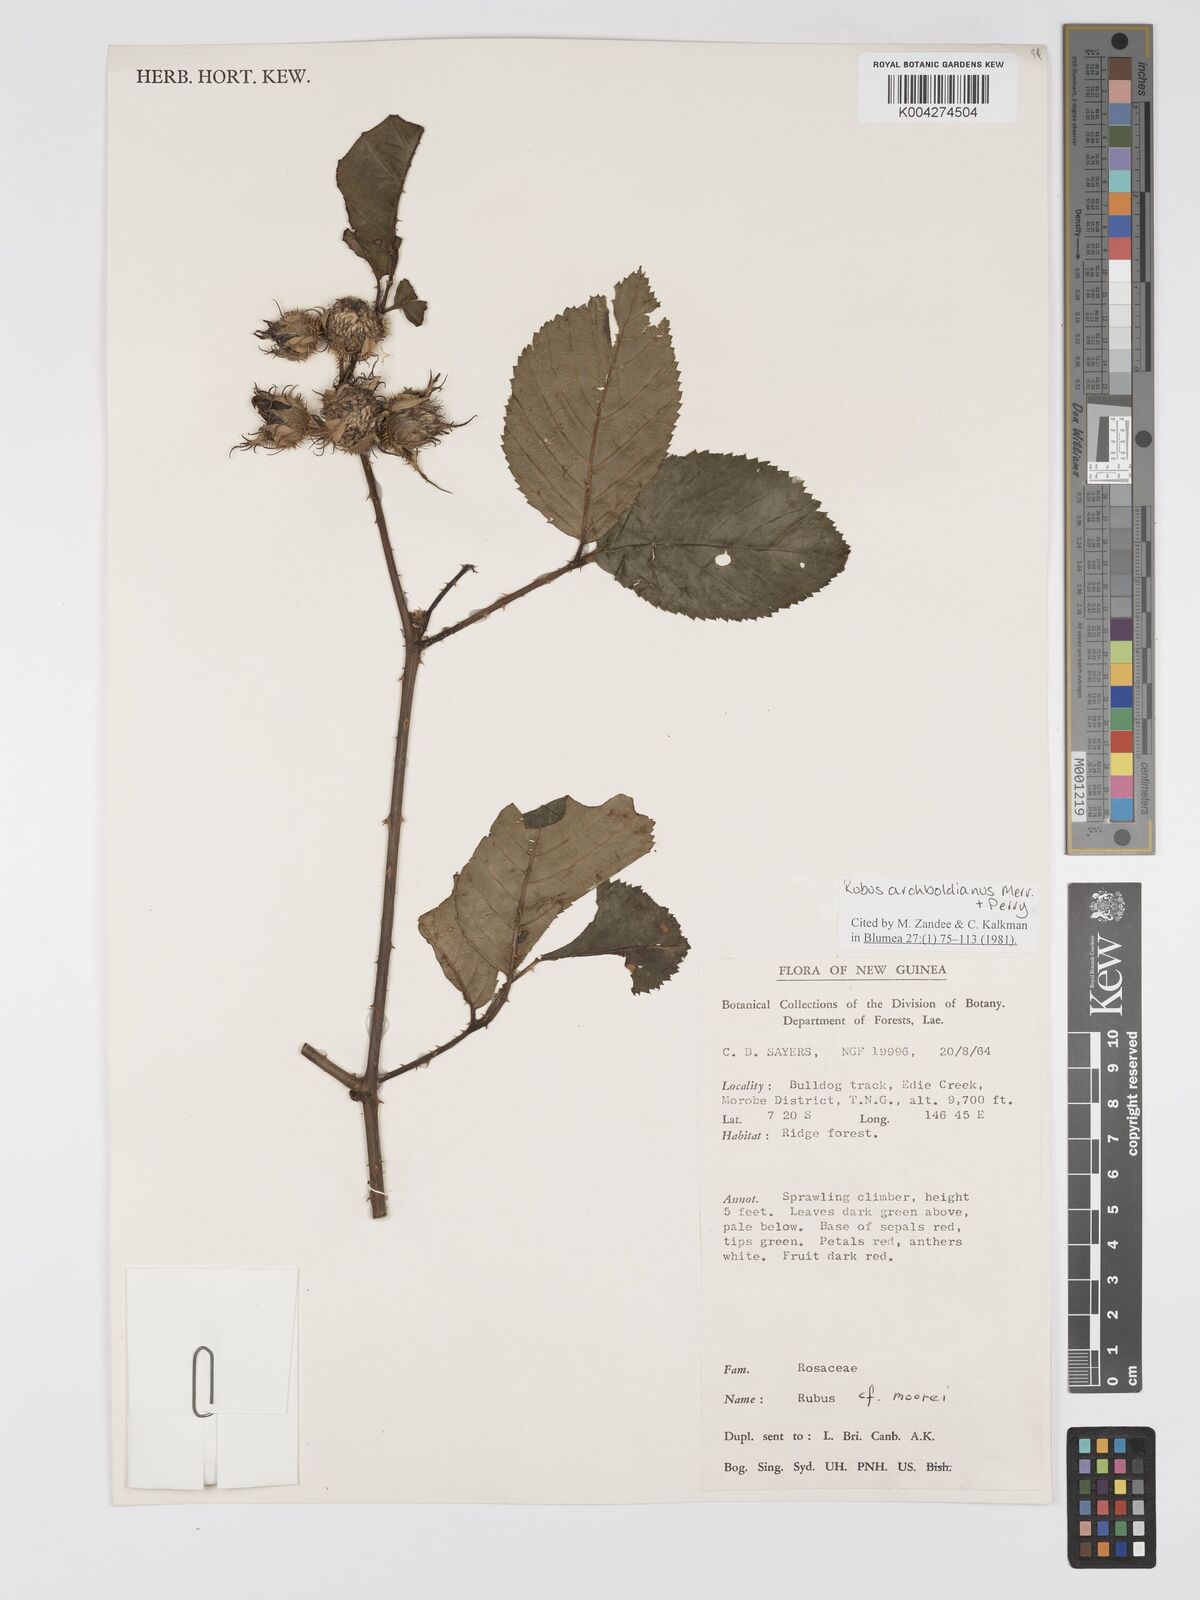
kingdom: Plantae
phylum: Tracheophyta
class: Magnoliopsida
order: Rosales
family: Rosaceae
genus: Rubus
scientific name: Rubus archboldianus
